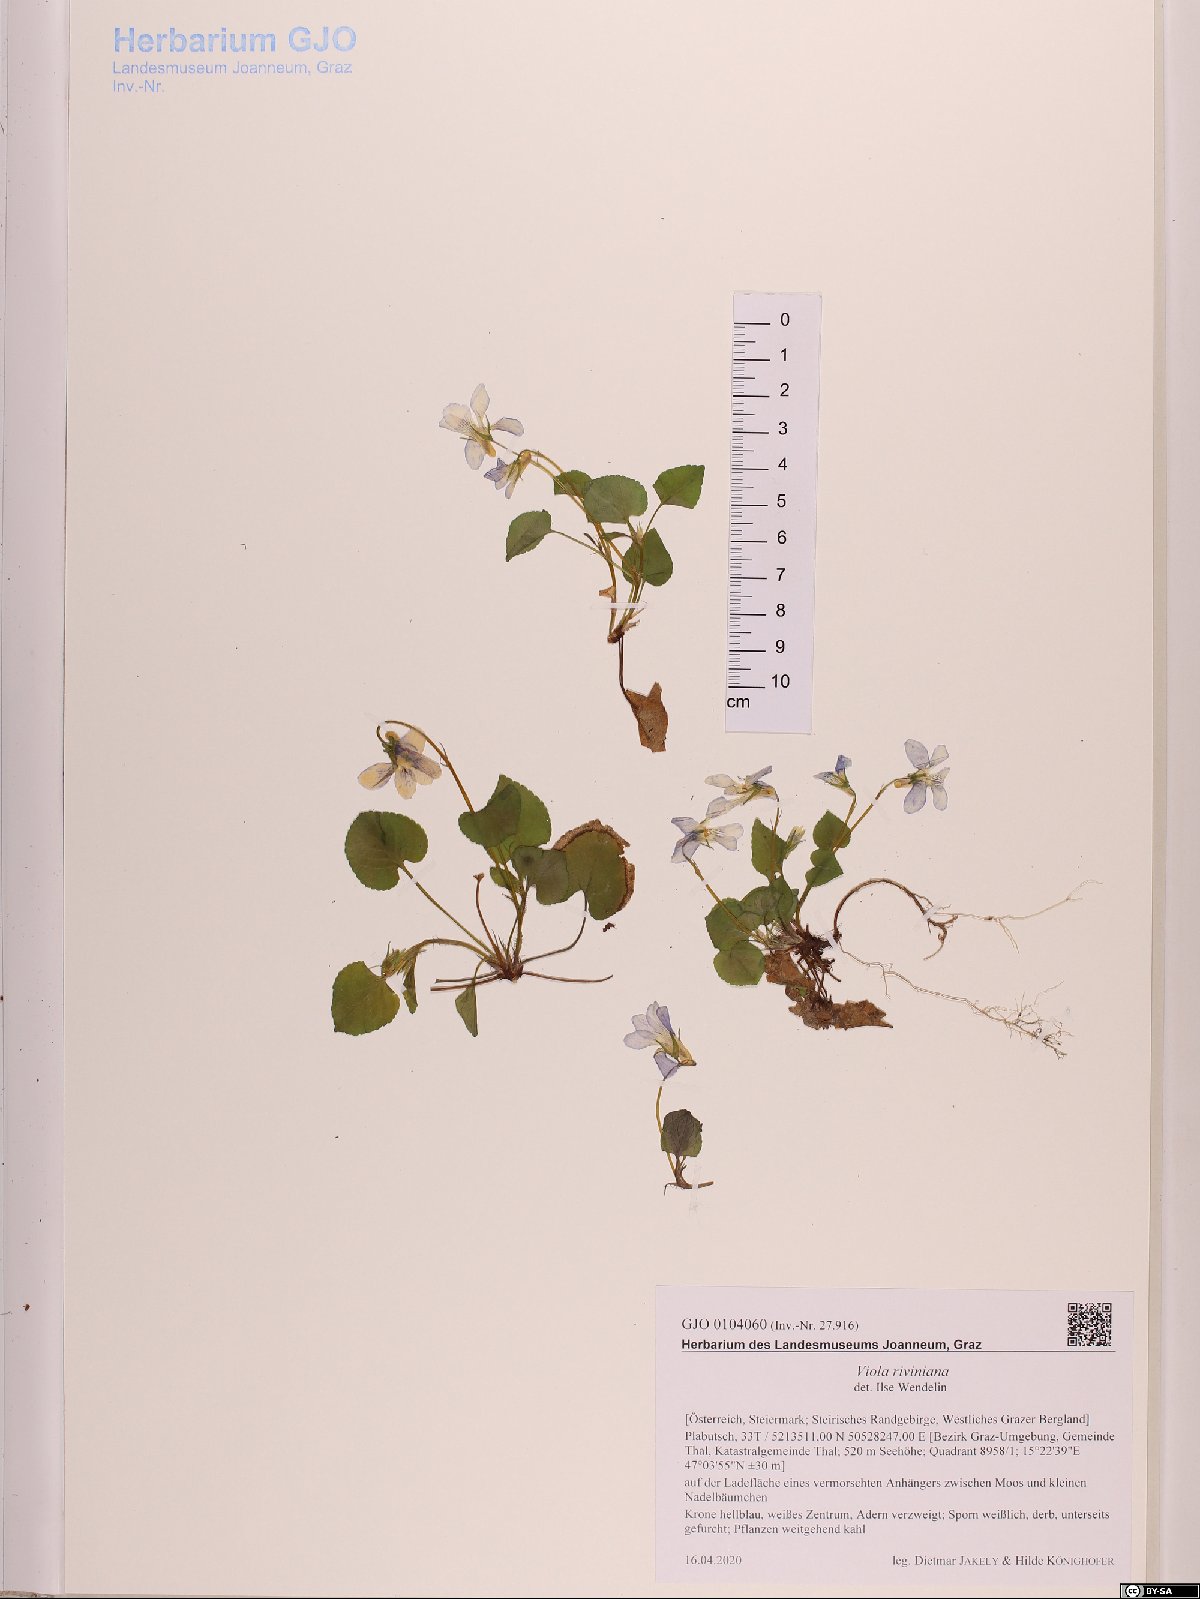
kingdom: Plantae
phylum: Tracheophyta
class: Magnoliopsida
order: Malpighiales
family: Violaceae
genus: Viola
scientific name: Viola riviniana
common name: Common dog-violet
